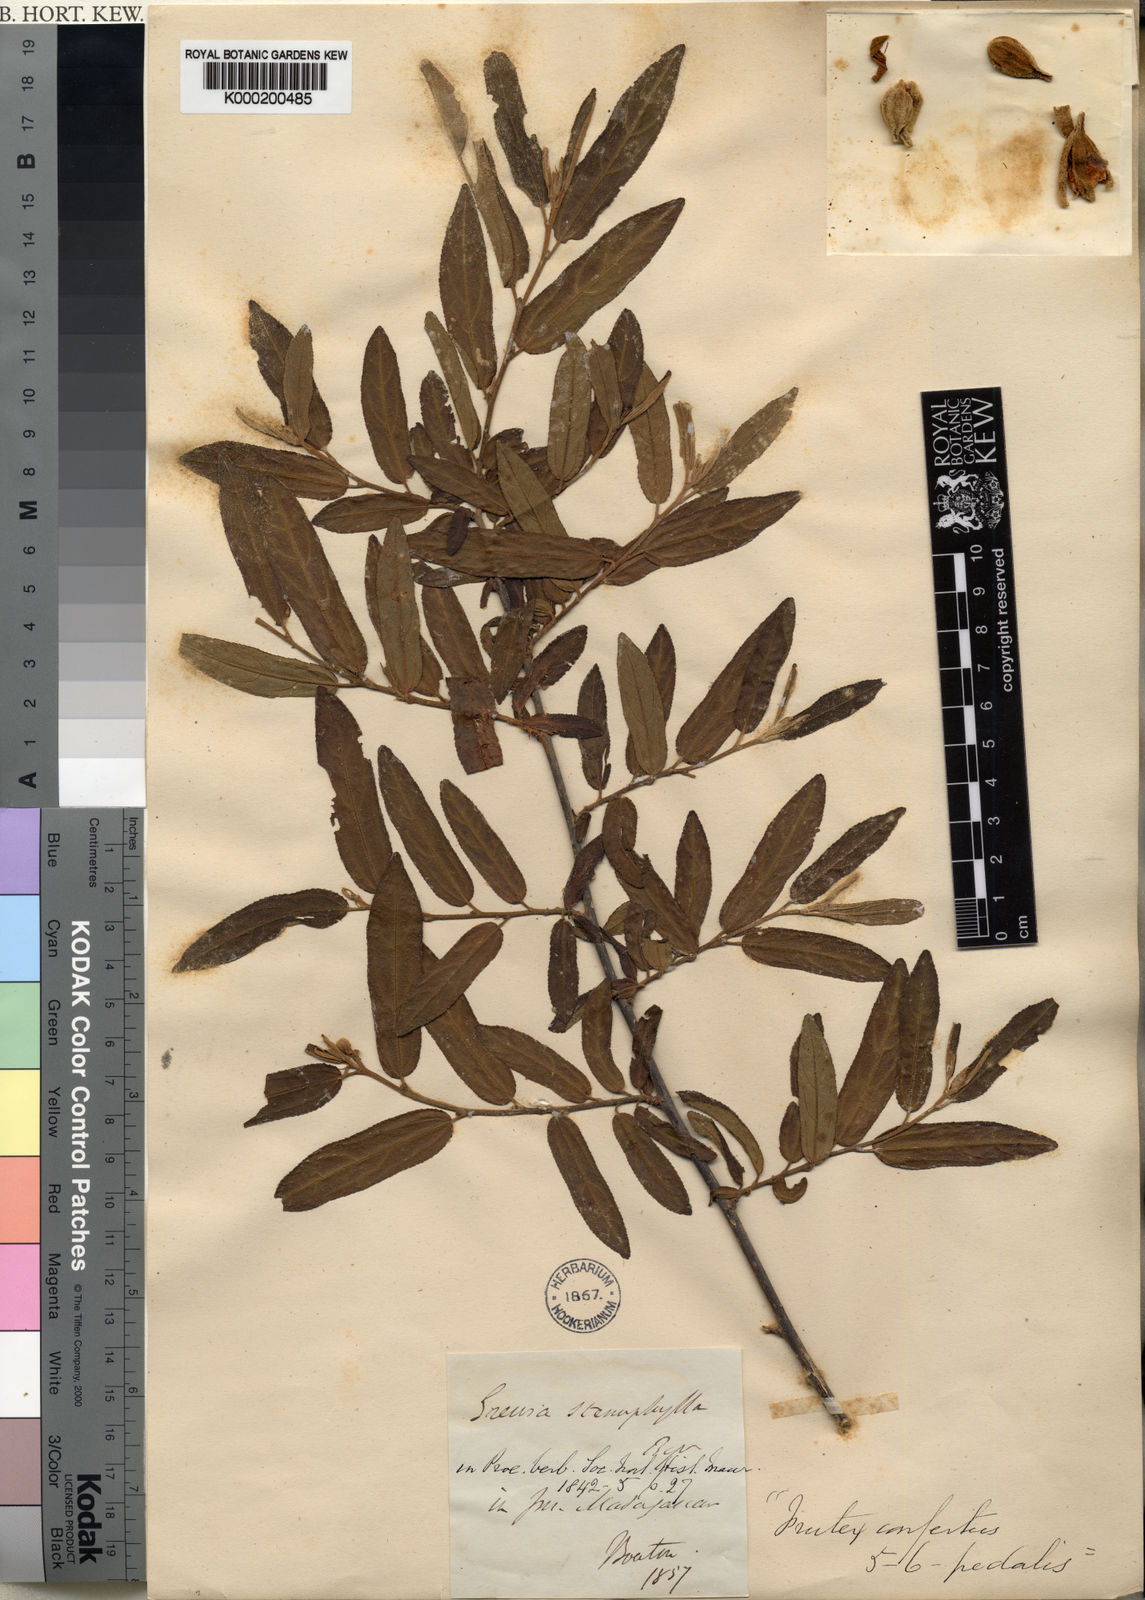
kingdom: Plantae
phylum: Tracheophyta
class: Magnoliopsida
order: Malvales
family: Malvaceae
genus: Grewia
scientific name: Grewia stenophylla
